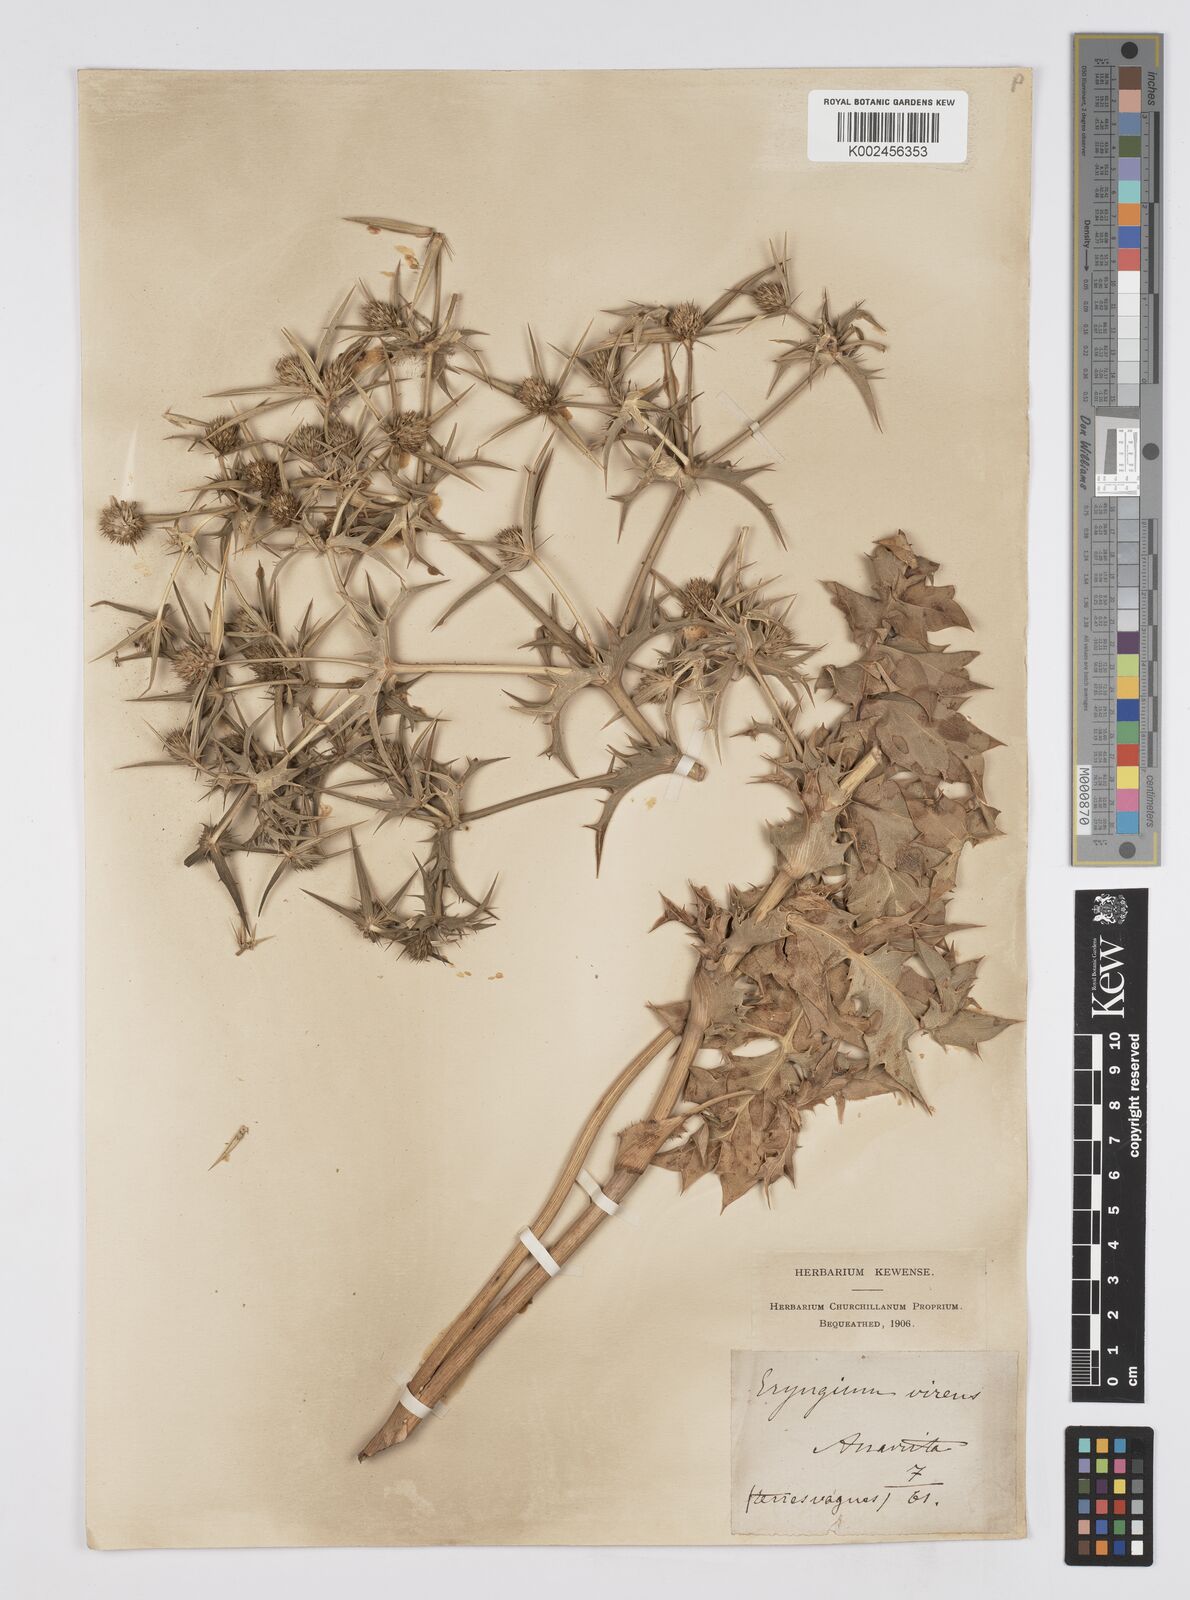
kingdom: Plantae
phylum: Tracheophyta
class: Magnoliopsida
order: Apiales
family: Apiaceae
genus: Eryngium
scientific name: Eryngium campestre
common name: Field eryngo
